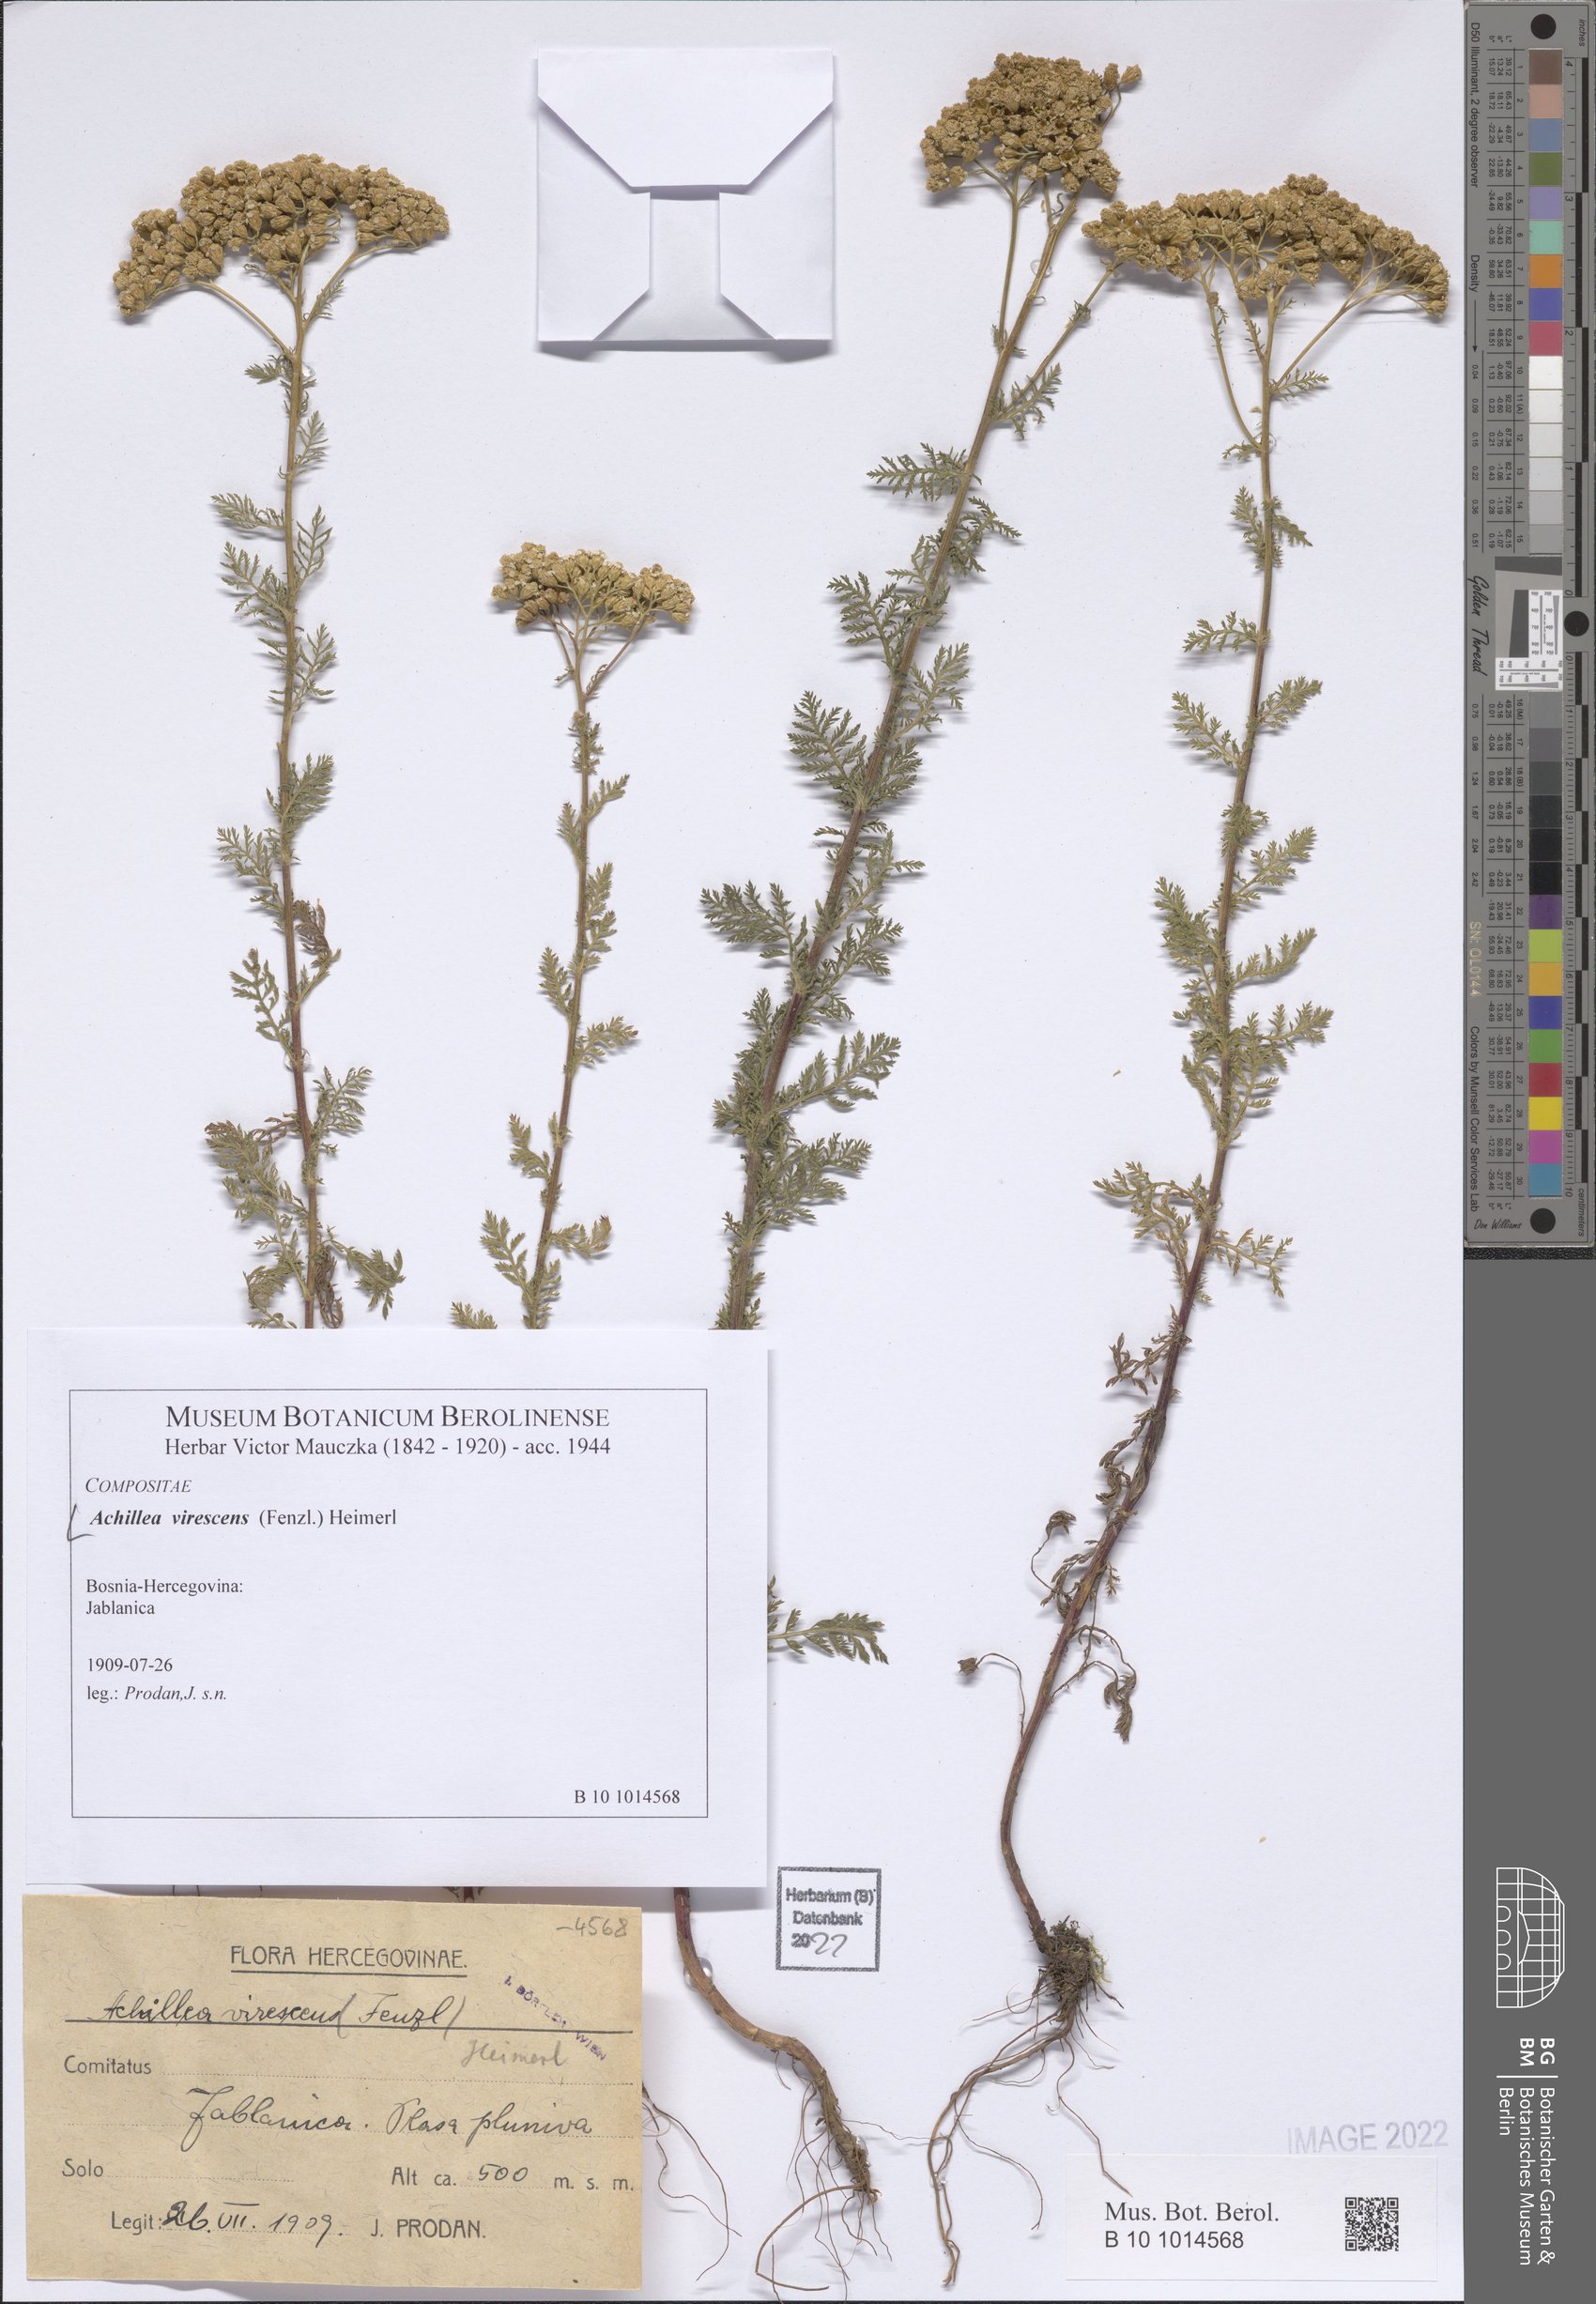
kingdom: Plantae
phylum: Tracheophyta
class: Magnoliopsida
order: Asterales
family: Asteraceae
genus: Achillea
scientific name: Achillea virescens
